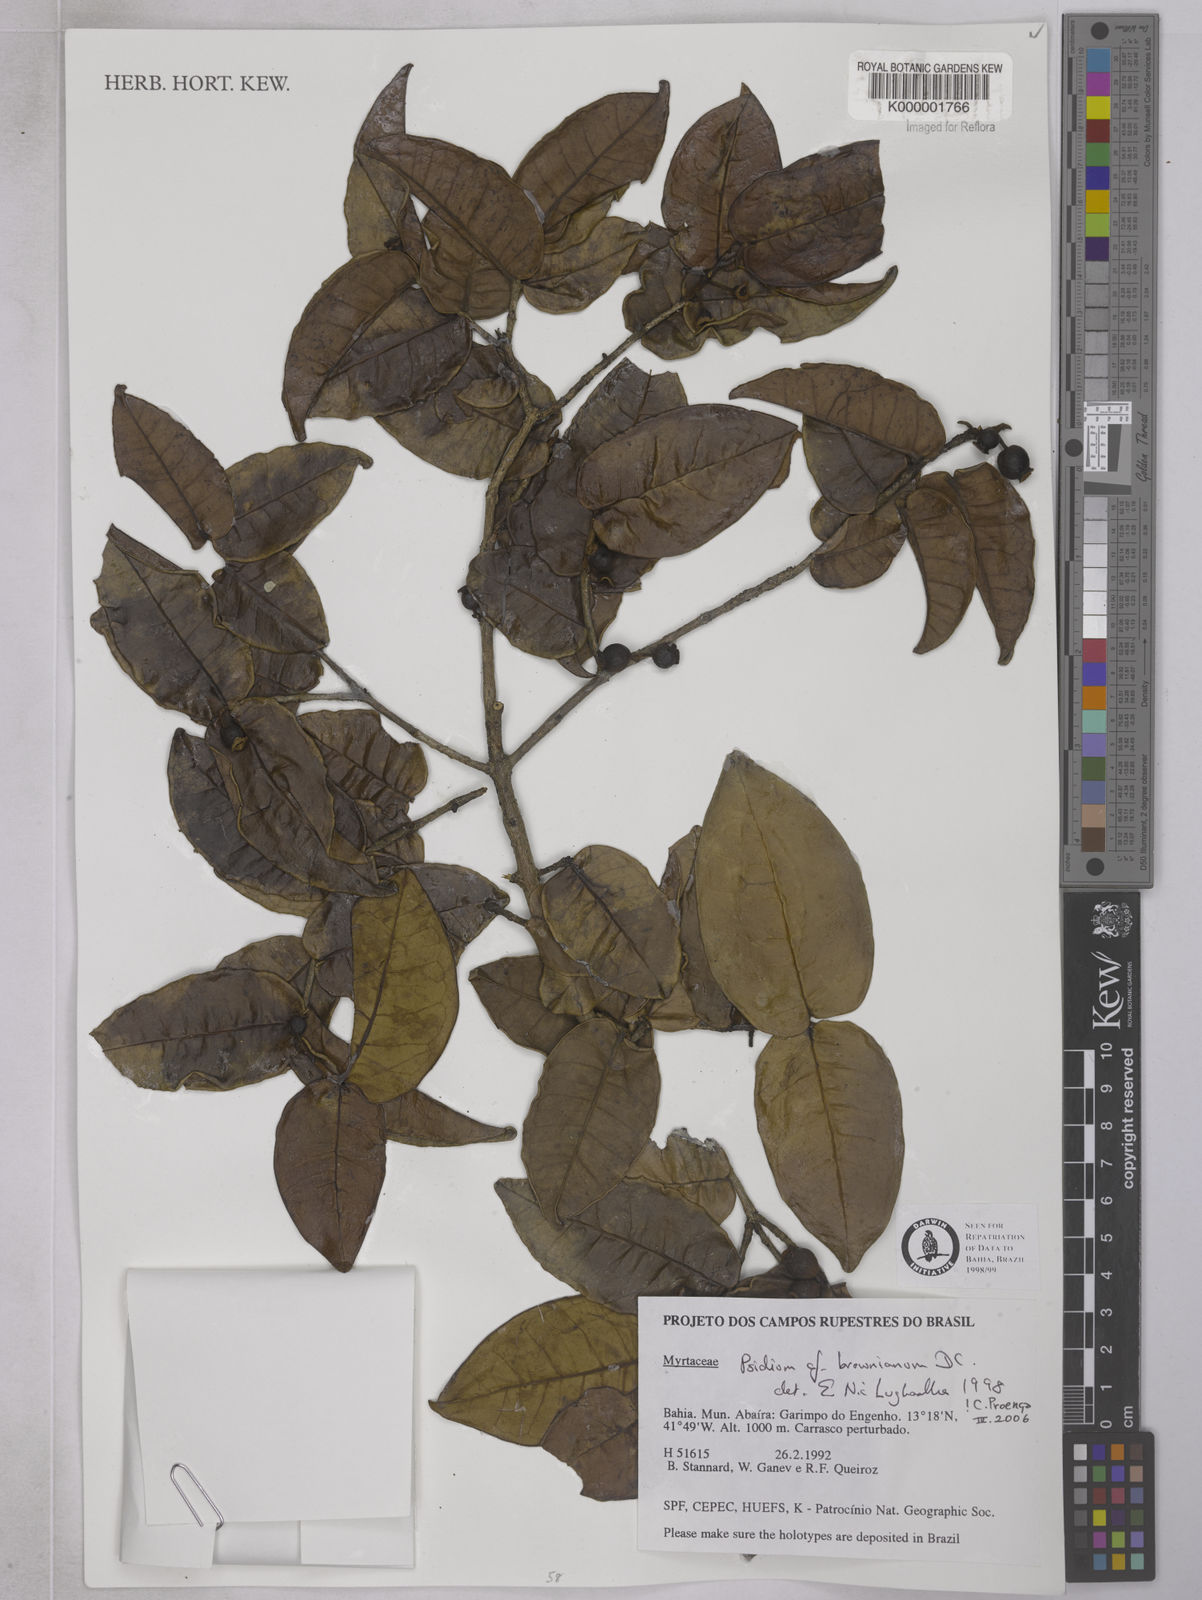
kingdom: Plantae
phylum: Tracheophyta
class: Magnoliopsida
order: Myrtales
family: Myrtaceae
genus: Psidium
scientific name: Psidium brownianum
